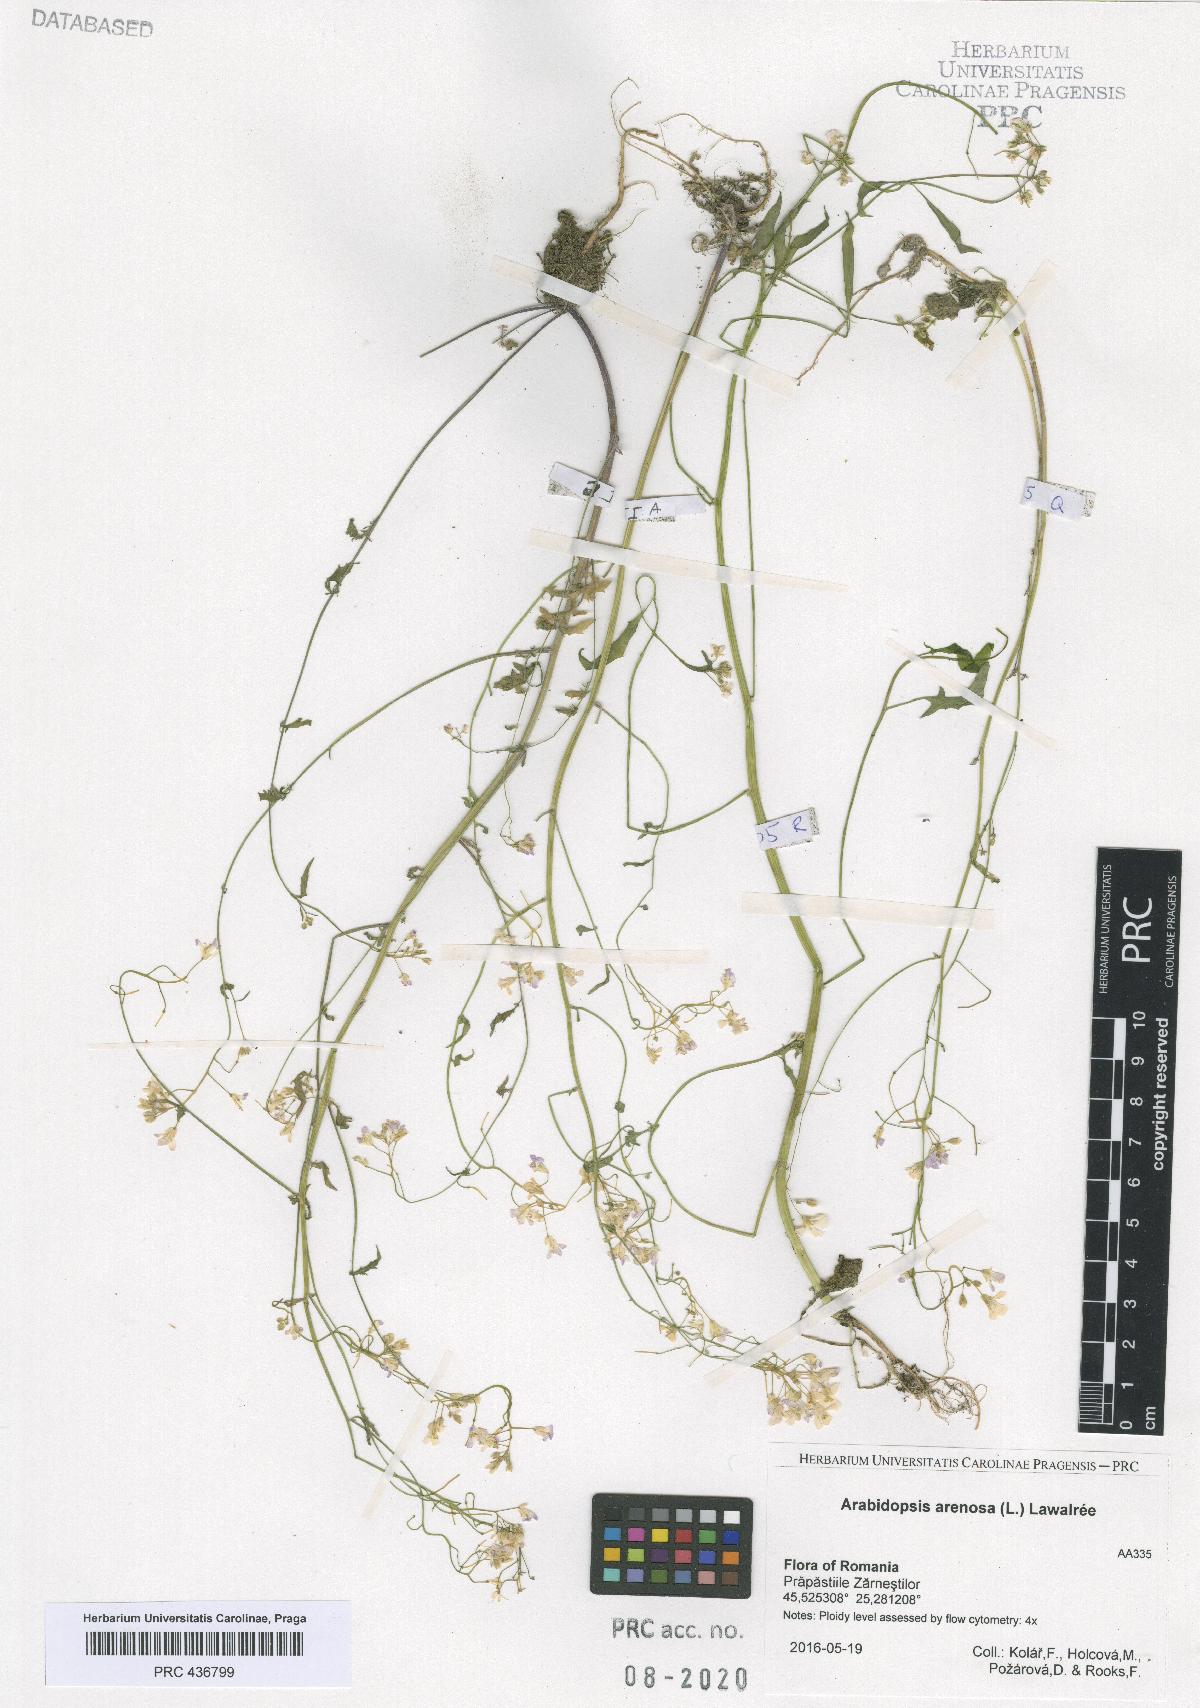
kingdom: Plantae
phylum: Tracheophyta
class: Magnoliopsida
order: Brassicales
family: Brassicaceae
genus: Arabidopsis
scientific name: Arabidopsis arenosa
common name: Sand rock-cress
